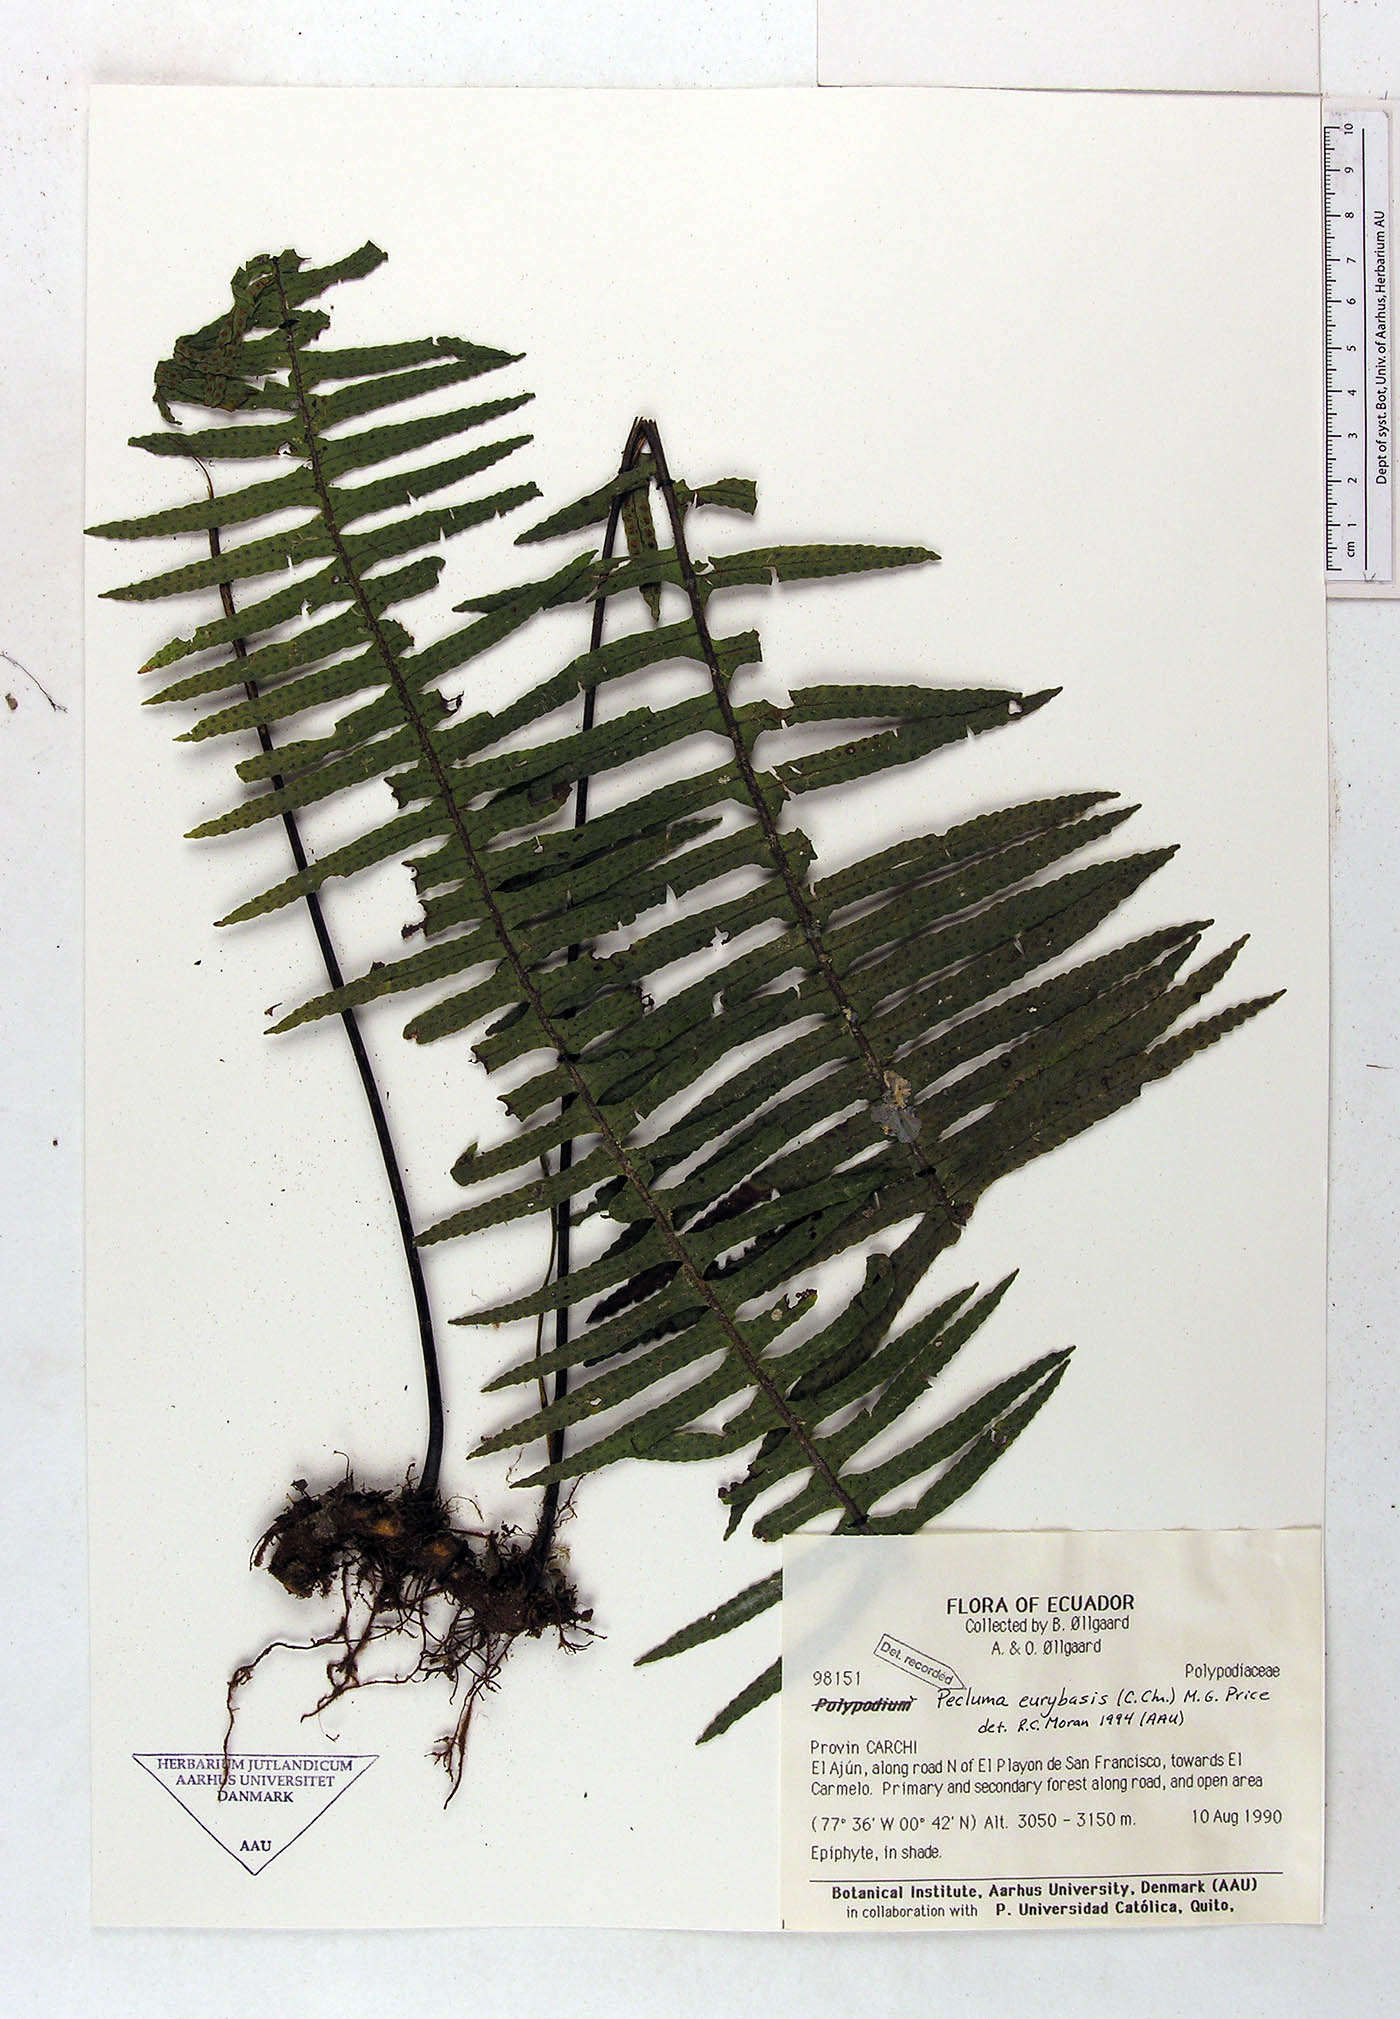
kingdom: Plantae
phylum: Tracheophyta
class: Polypodiopsida
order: Polypodiales
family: Polypodiaceae
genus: Pecluma
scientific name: Pecluma eurybasis
